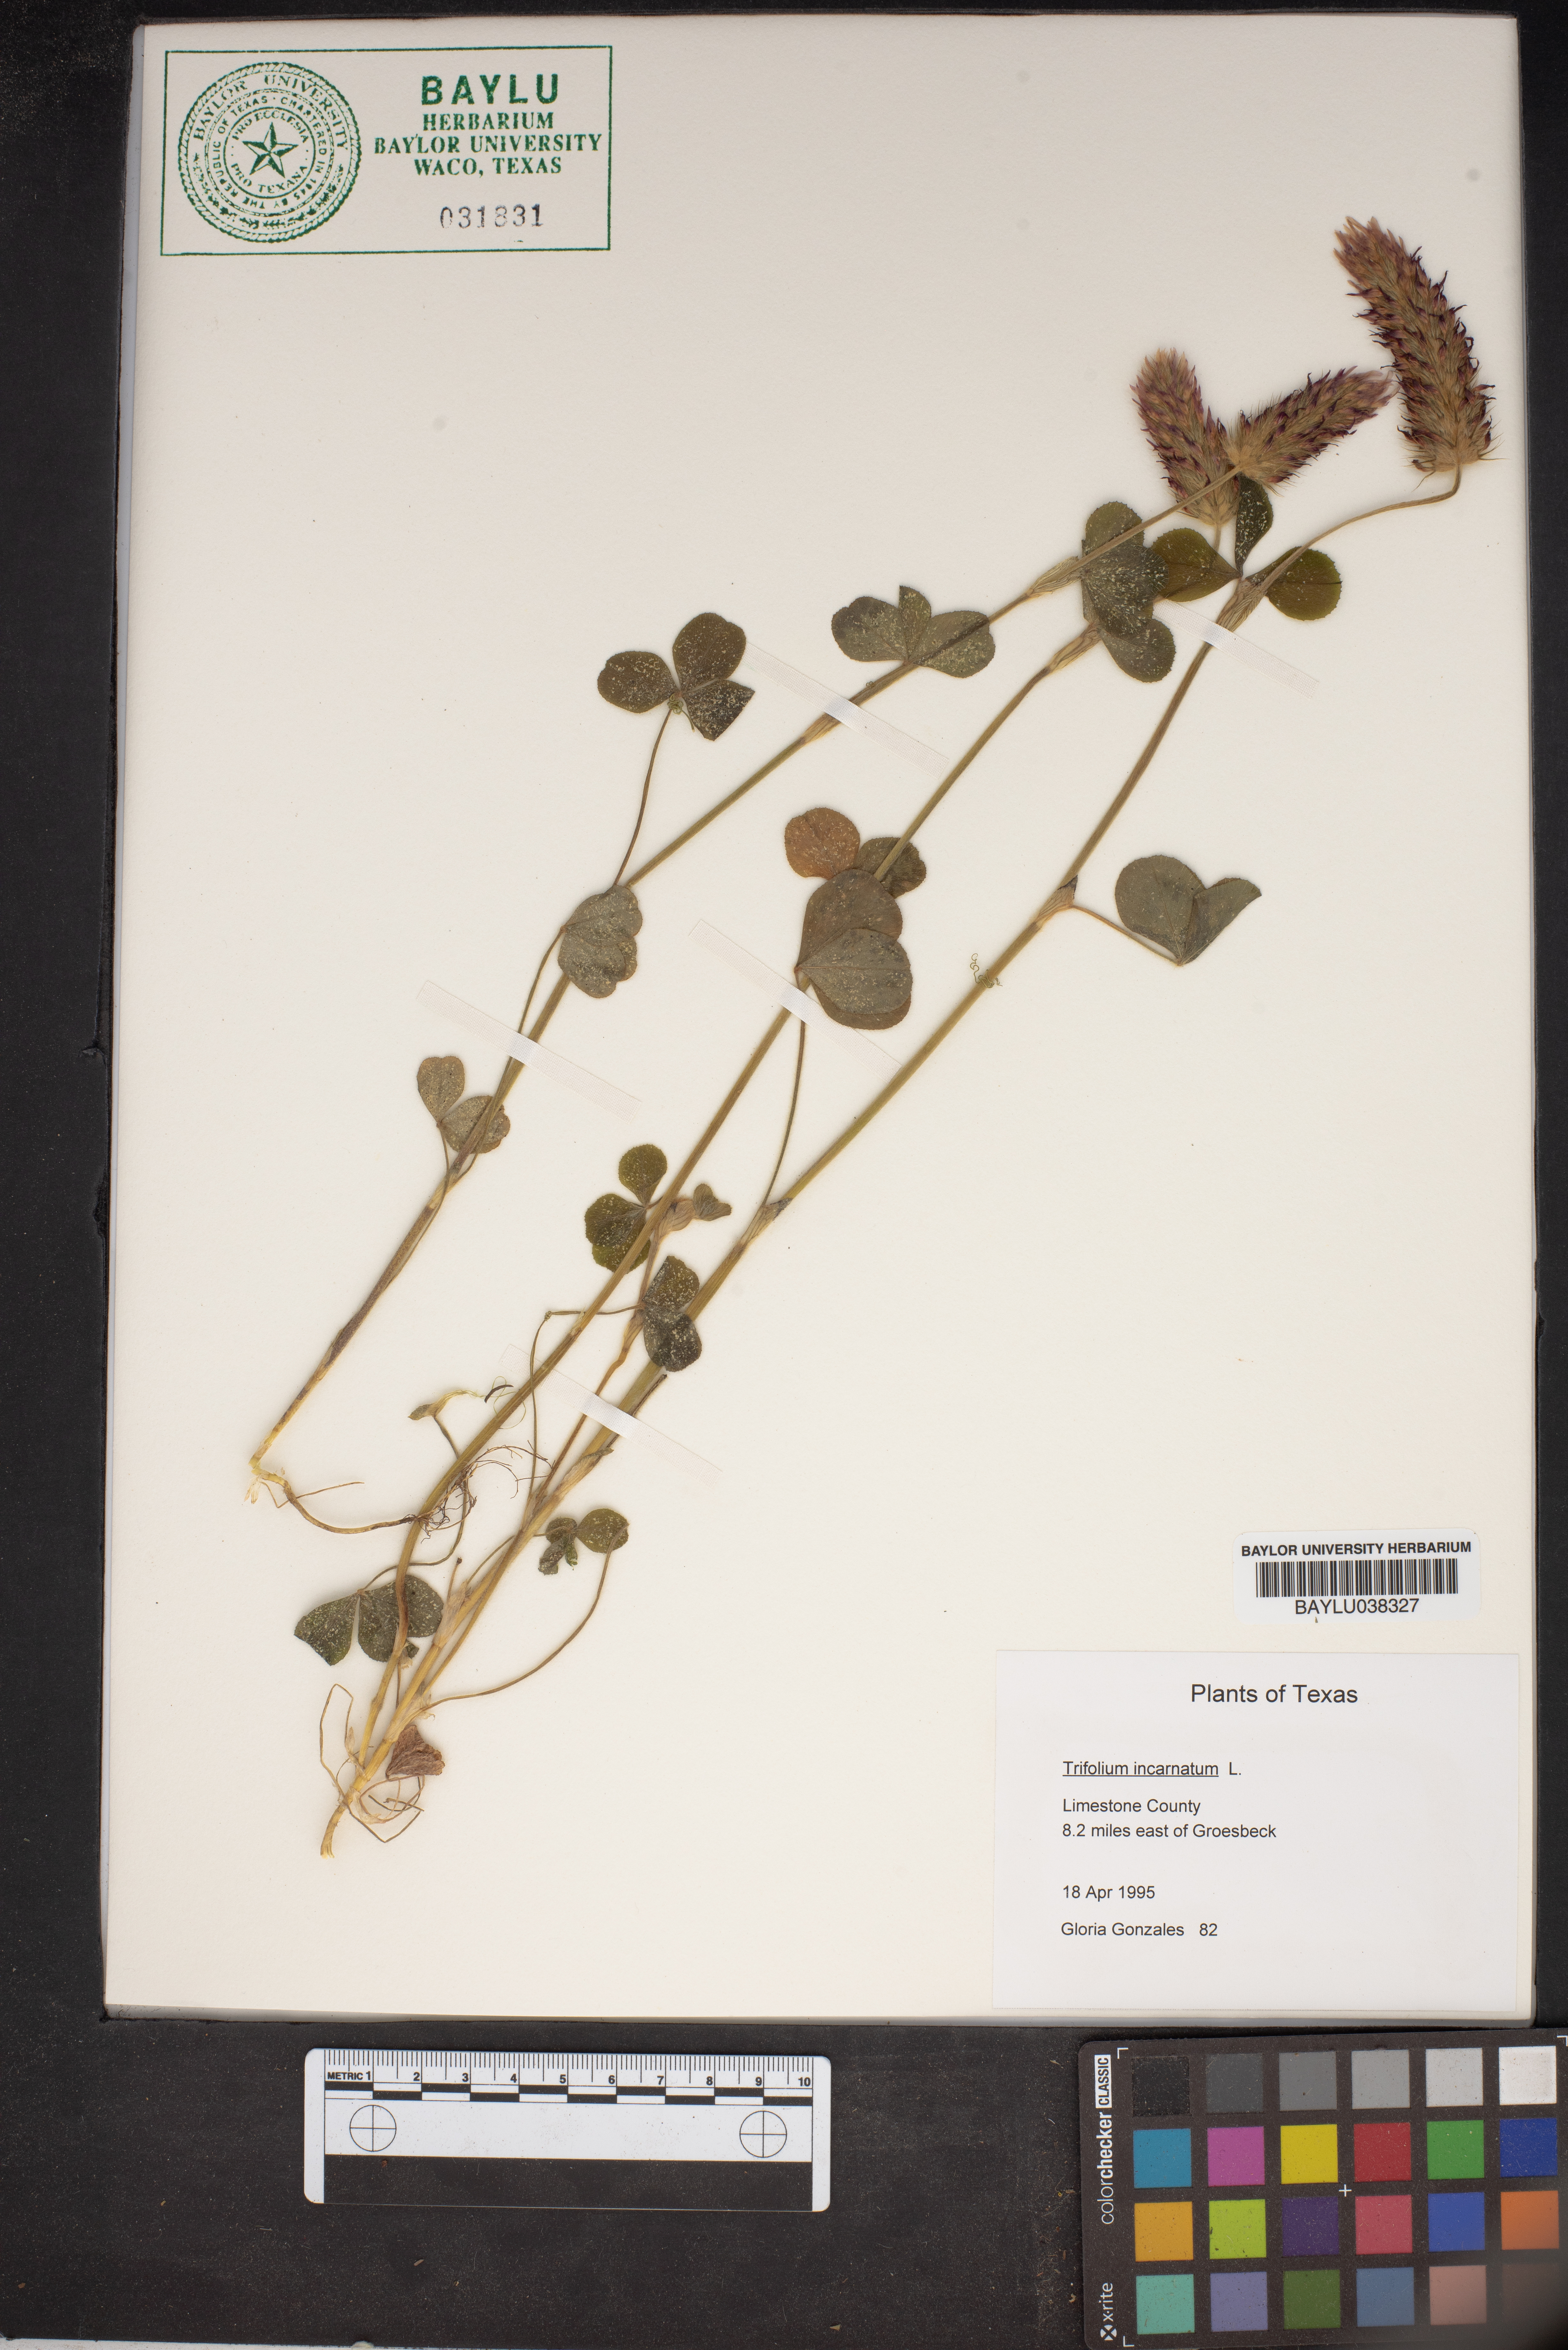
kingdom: Plantae
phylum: Tracheophyta
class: Magnoliopsida
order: Fabales
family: Fabaceae
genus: Trifolium
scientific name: Trifolium incarnatum
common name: Crimson clover
